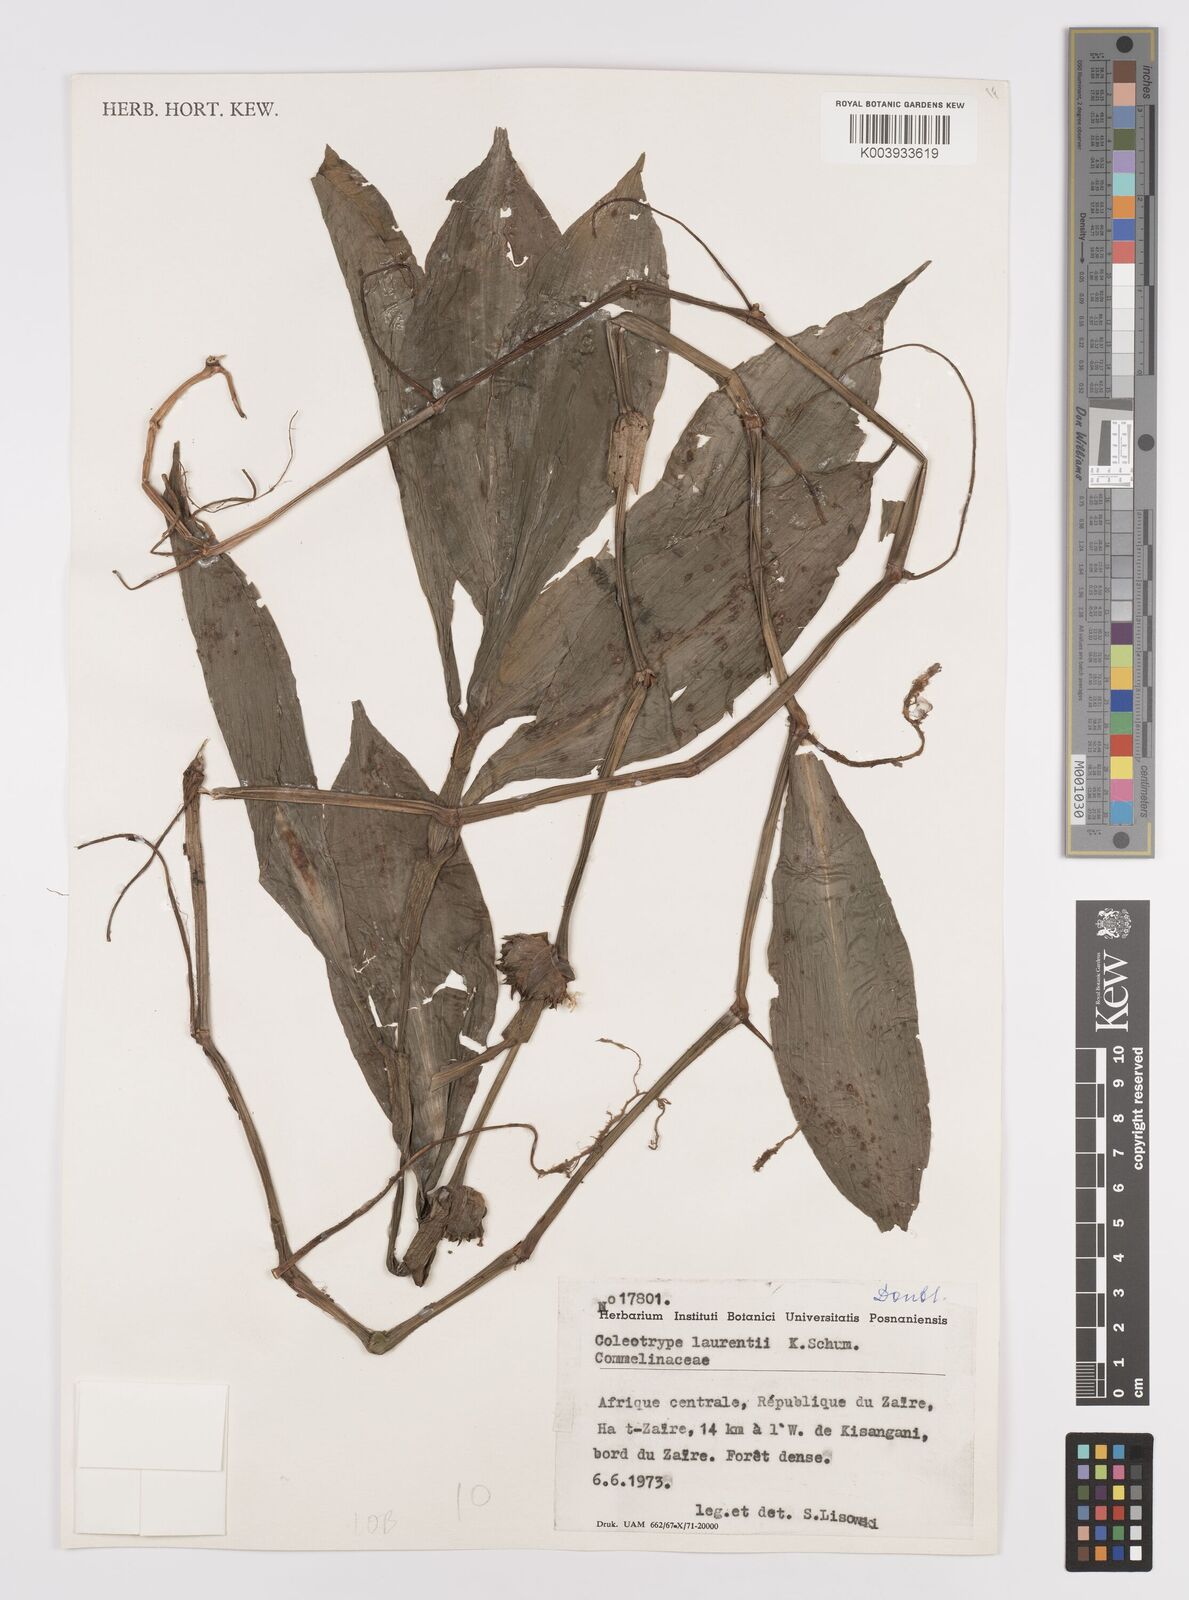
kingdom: Plantae
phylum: Tracheophyta
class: Liliopsida
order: Commelinales
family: Commelinaceae
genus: Coleotrype
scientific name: Coleotrype laurentii
